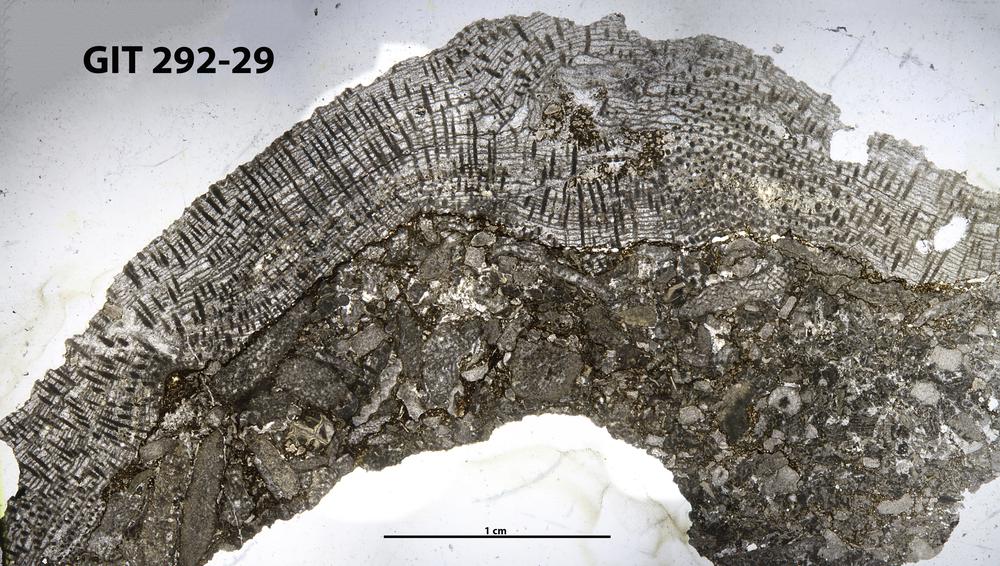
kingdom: Animalia
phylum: Porifera
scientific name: Porifera
